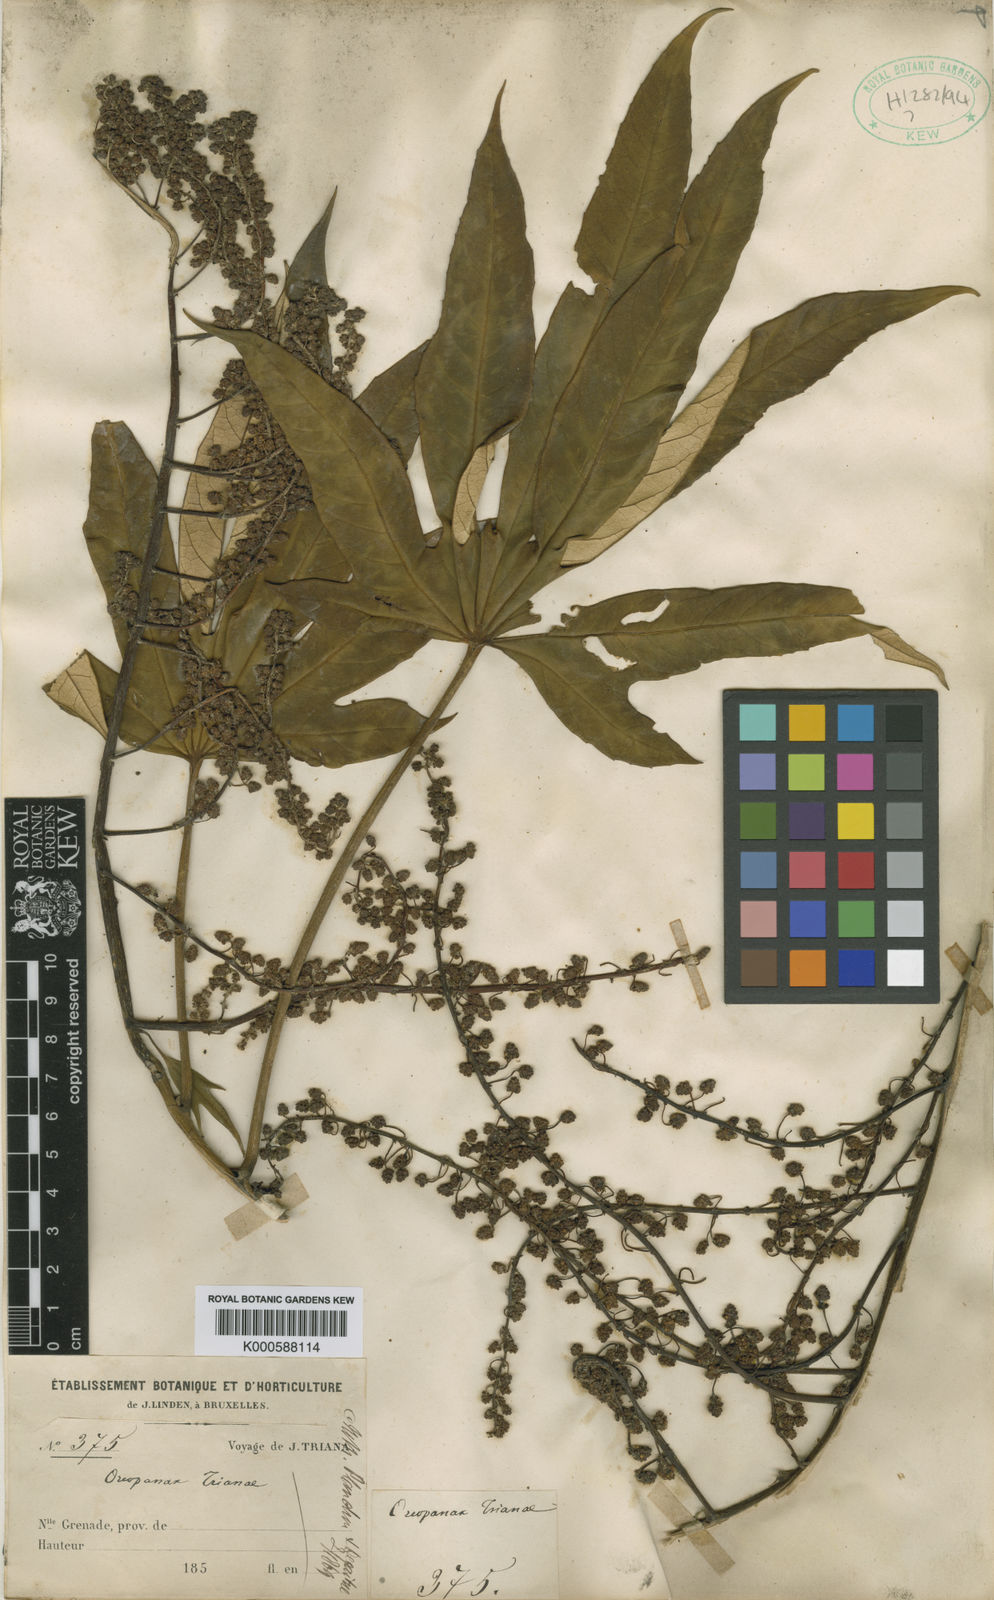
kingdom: Plantae
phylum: Tracheophyta
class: Magnoliopsida
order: Apiales
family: Araliaceae
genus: Oreopanax
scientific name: Oreopanax
